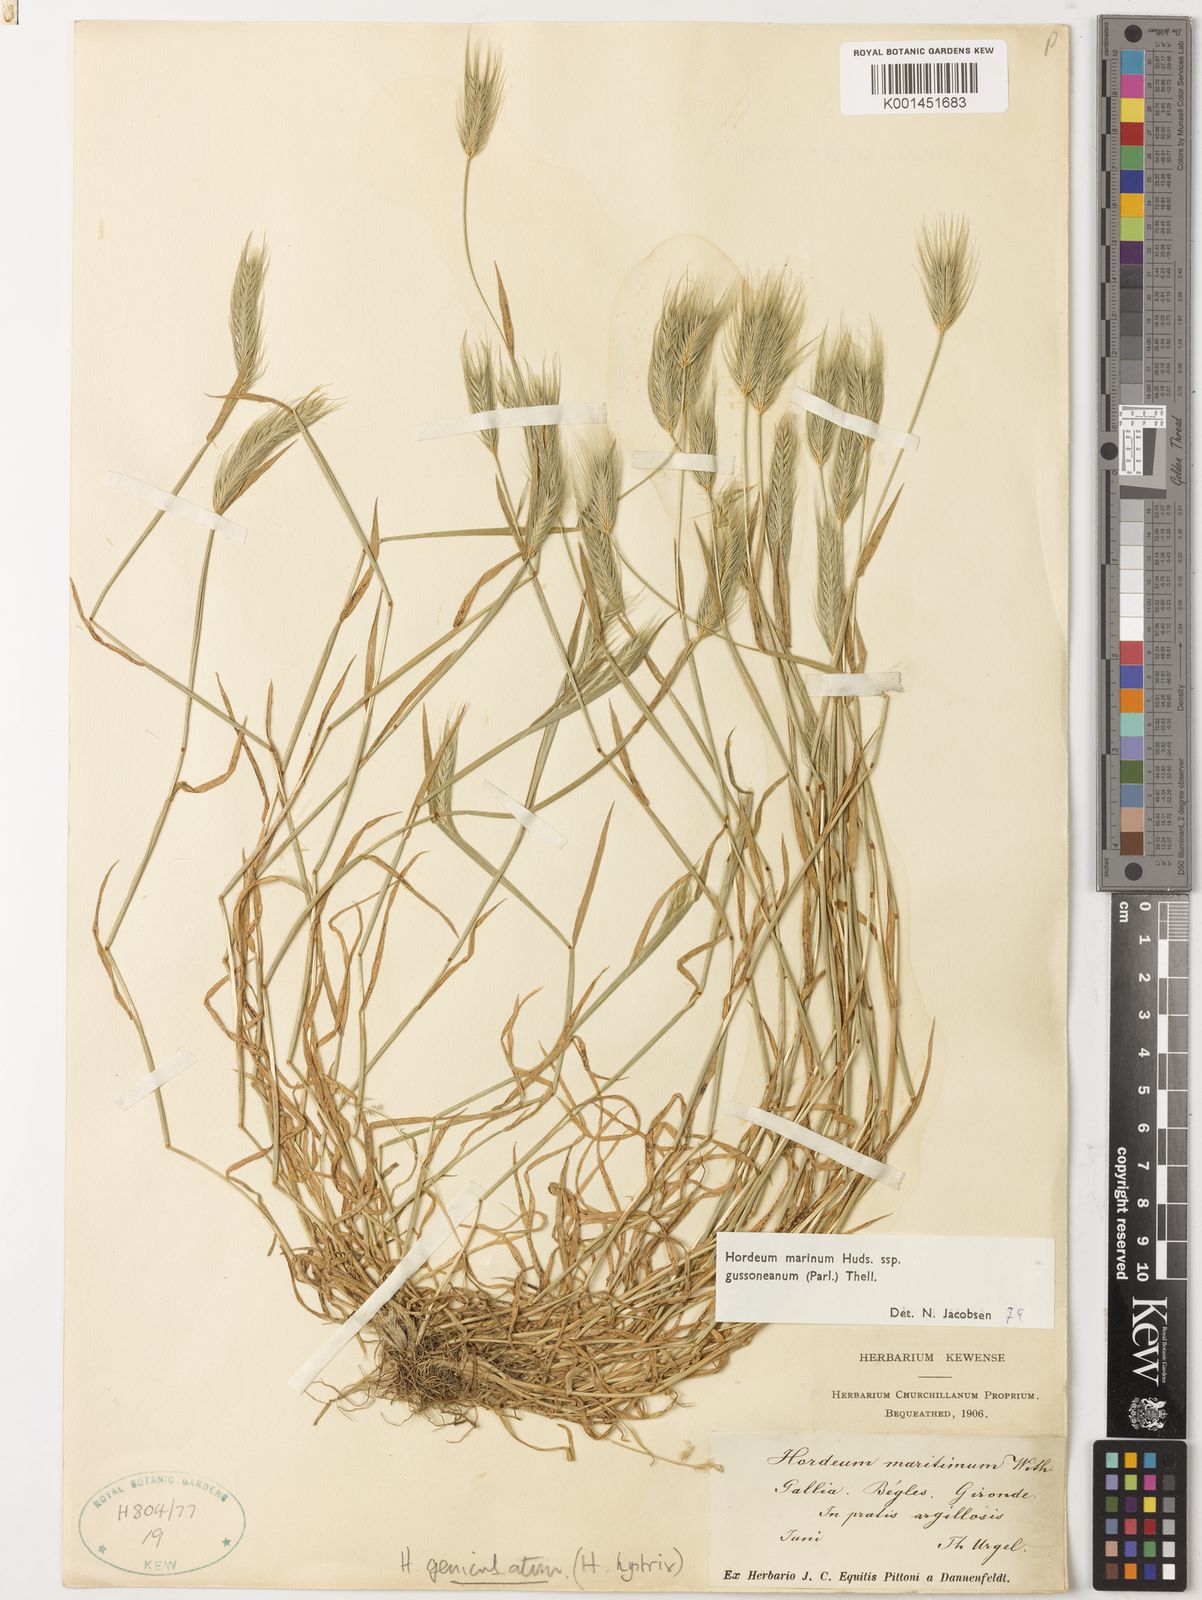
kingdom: Plantae
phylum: Tracheophyta
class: Liliopsida
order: Poales
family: Poaceae
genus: Hordeum
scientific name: Hordeum marinum
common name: Sea barley
